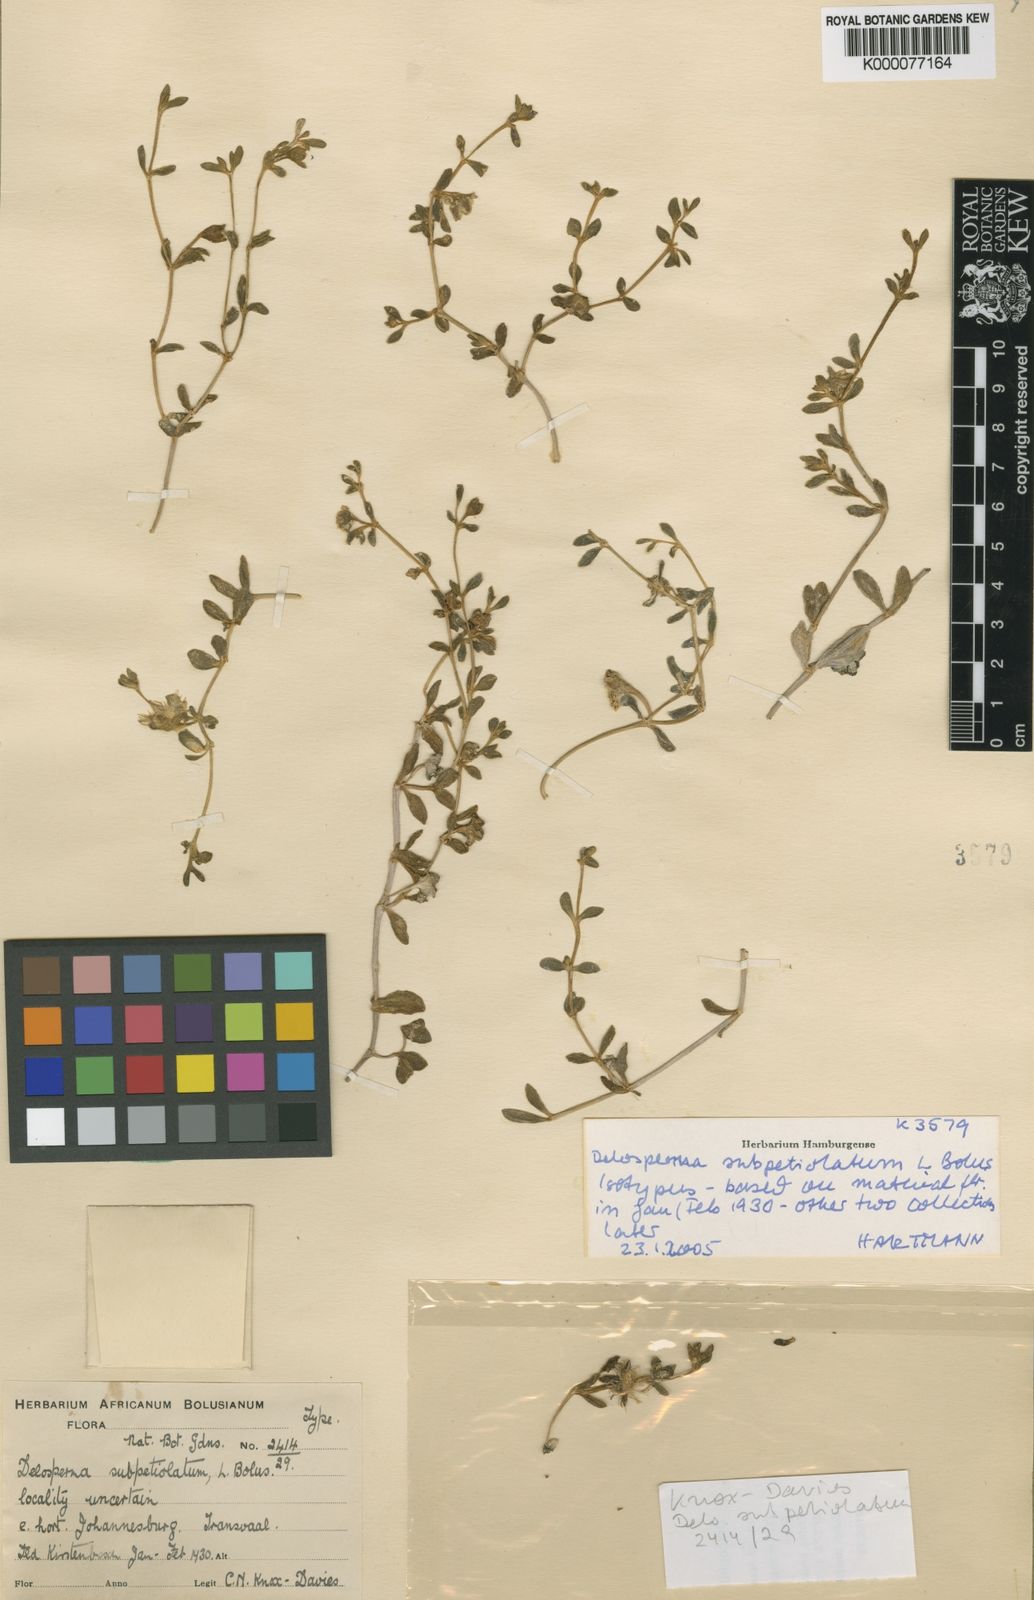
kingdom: Plantae
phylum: Tracheophyta
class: Magnoliopsida
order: Caryophyllales
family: Aizoaceae
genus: Delosperma
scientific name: Delosperma subpetiolatum
